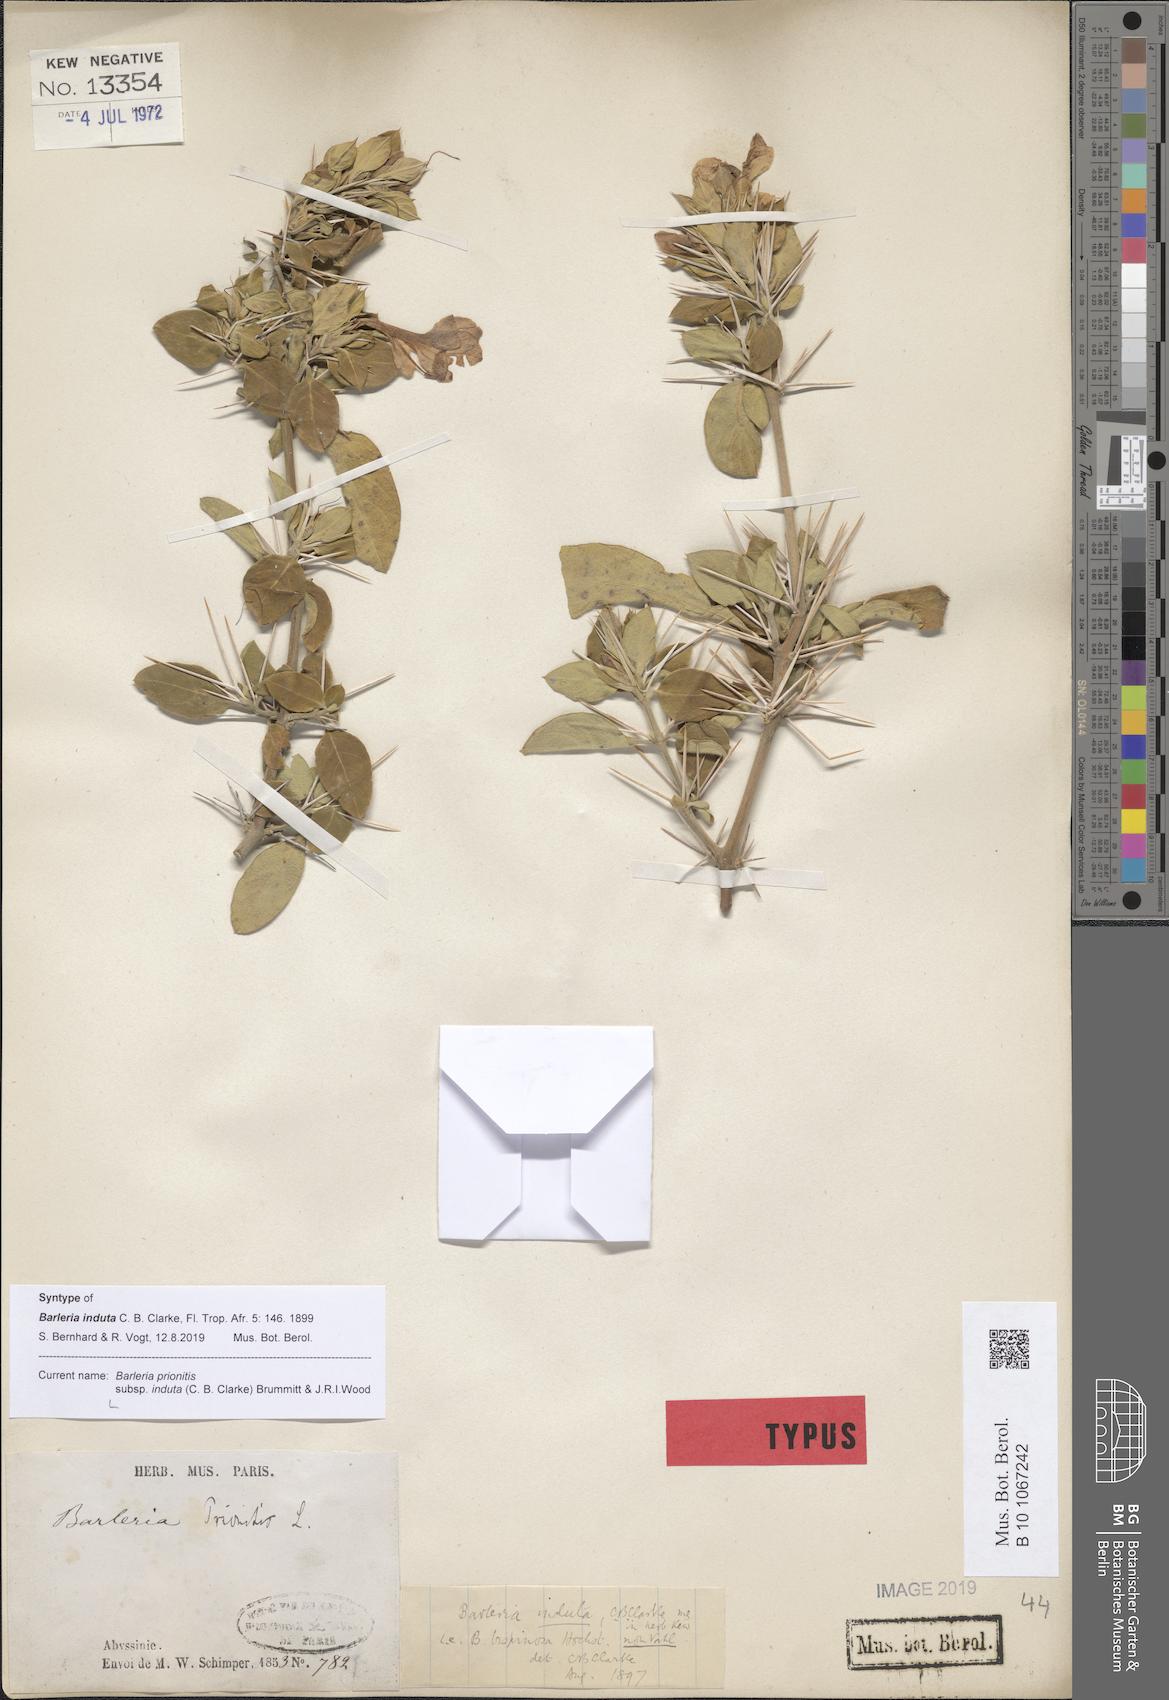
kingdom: Plantae
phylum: Tracheophyta
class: Magnoliopsida
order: Lamiales
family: Acanthaceae
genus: Barleria
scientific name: Barleria prionitis
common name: Barleria
